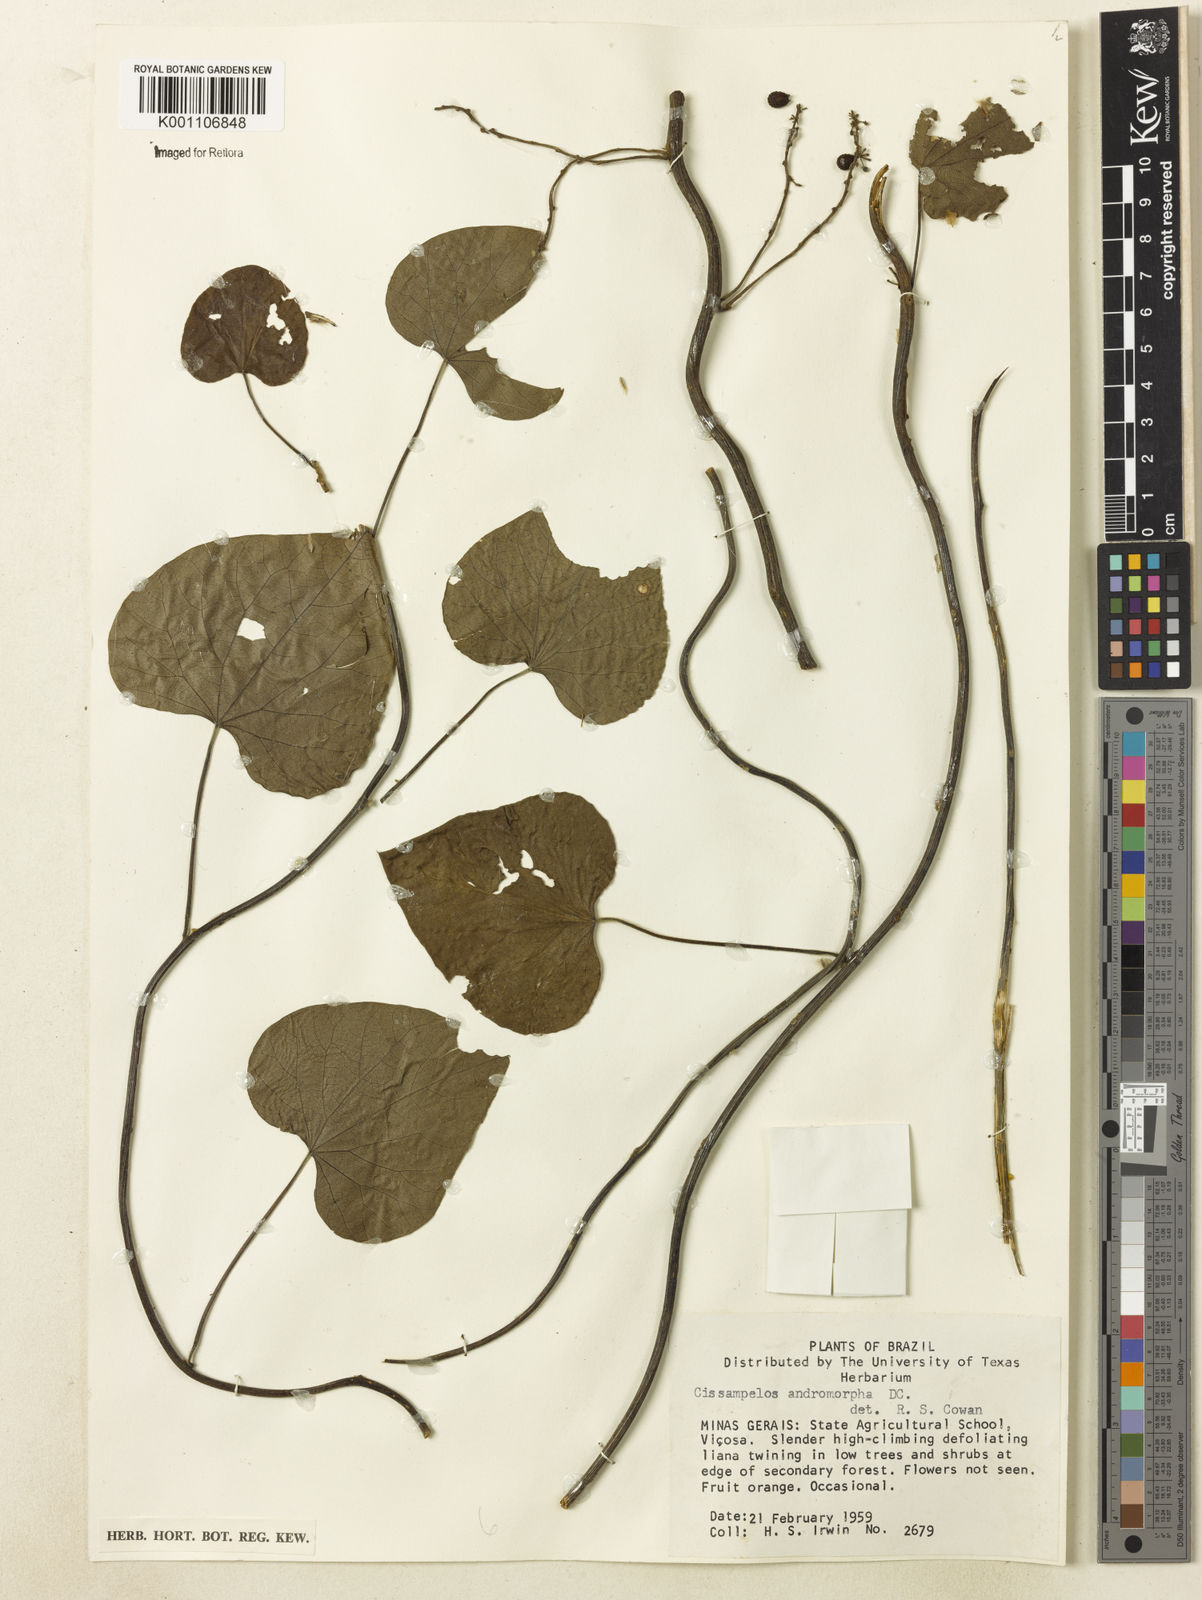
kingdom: Plantae
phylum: Tracheophyta
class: Magnoliopsida
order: Ranunculales
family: Menispermaceae
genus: Cissampelos
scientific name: Cissampelos andromorpha
